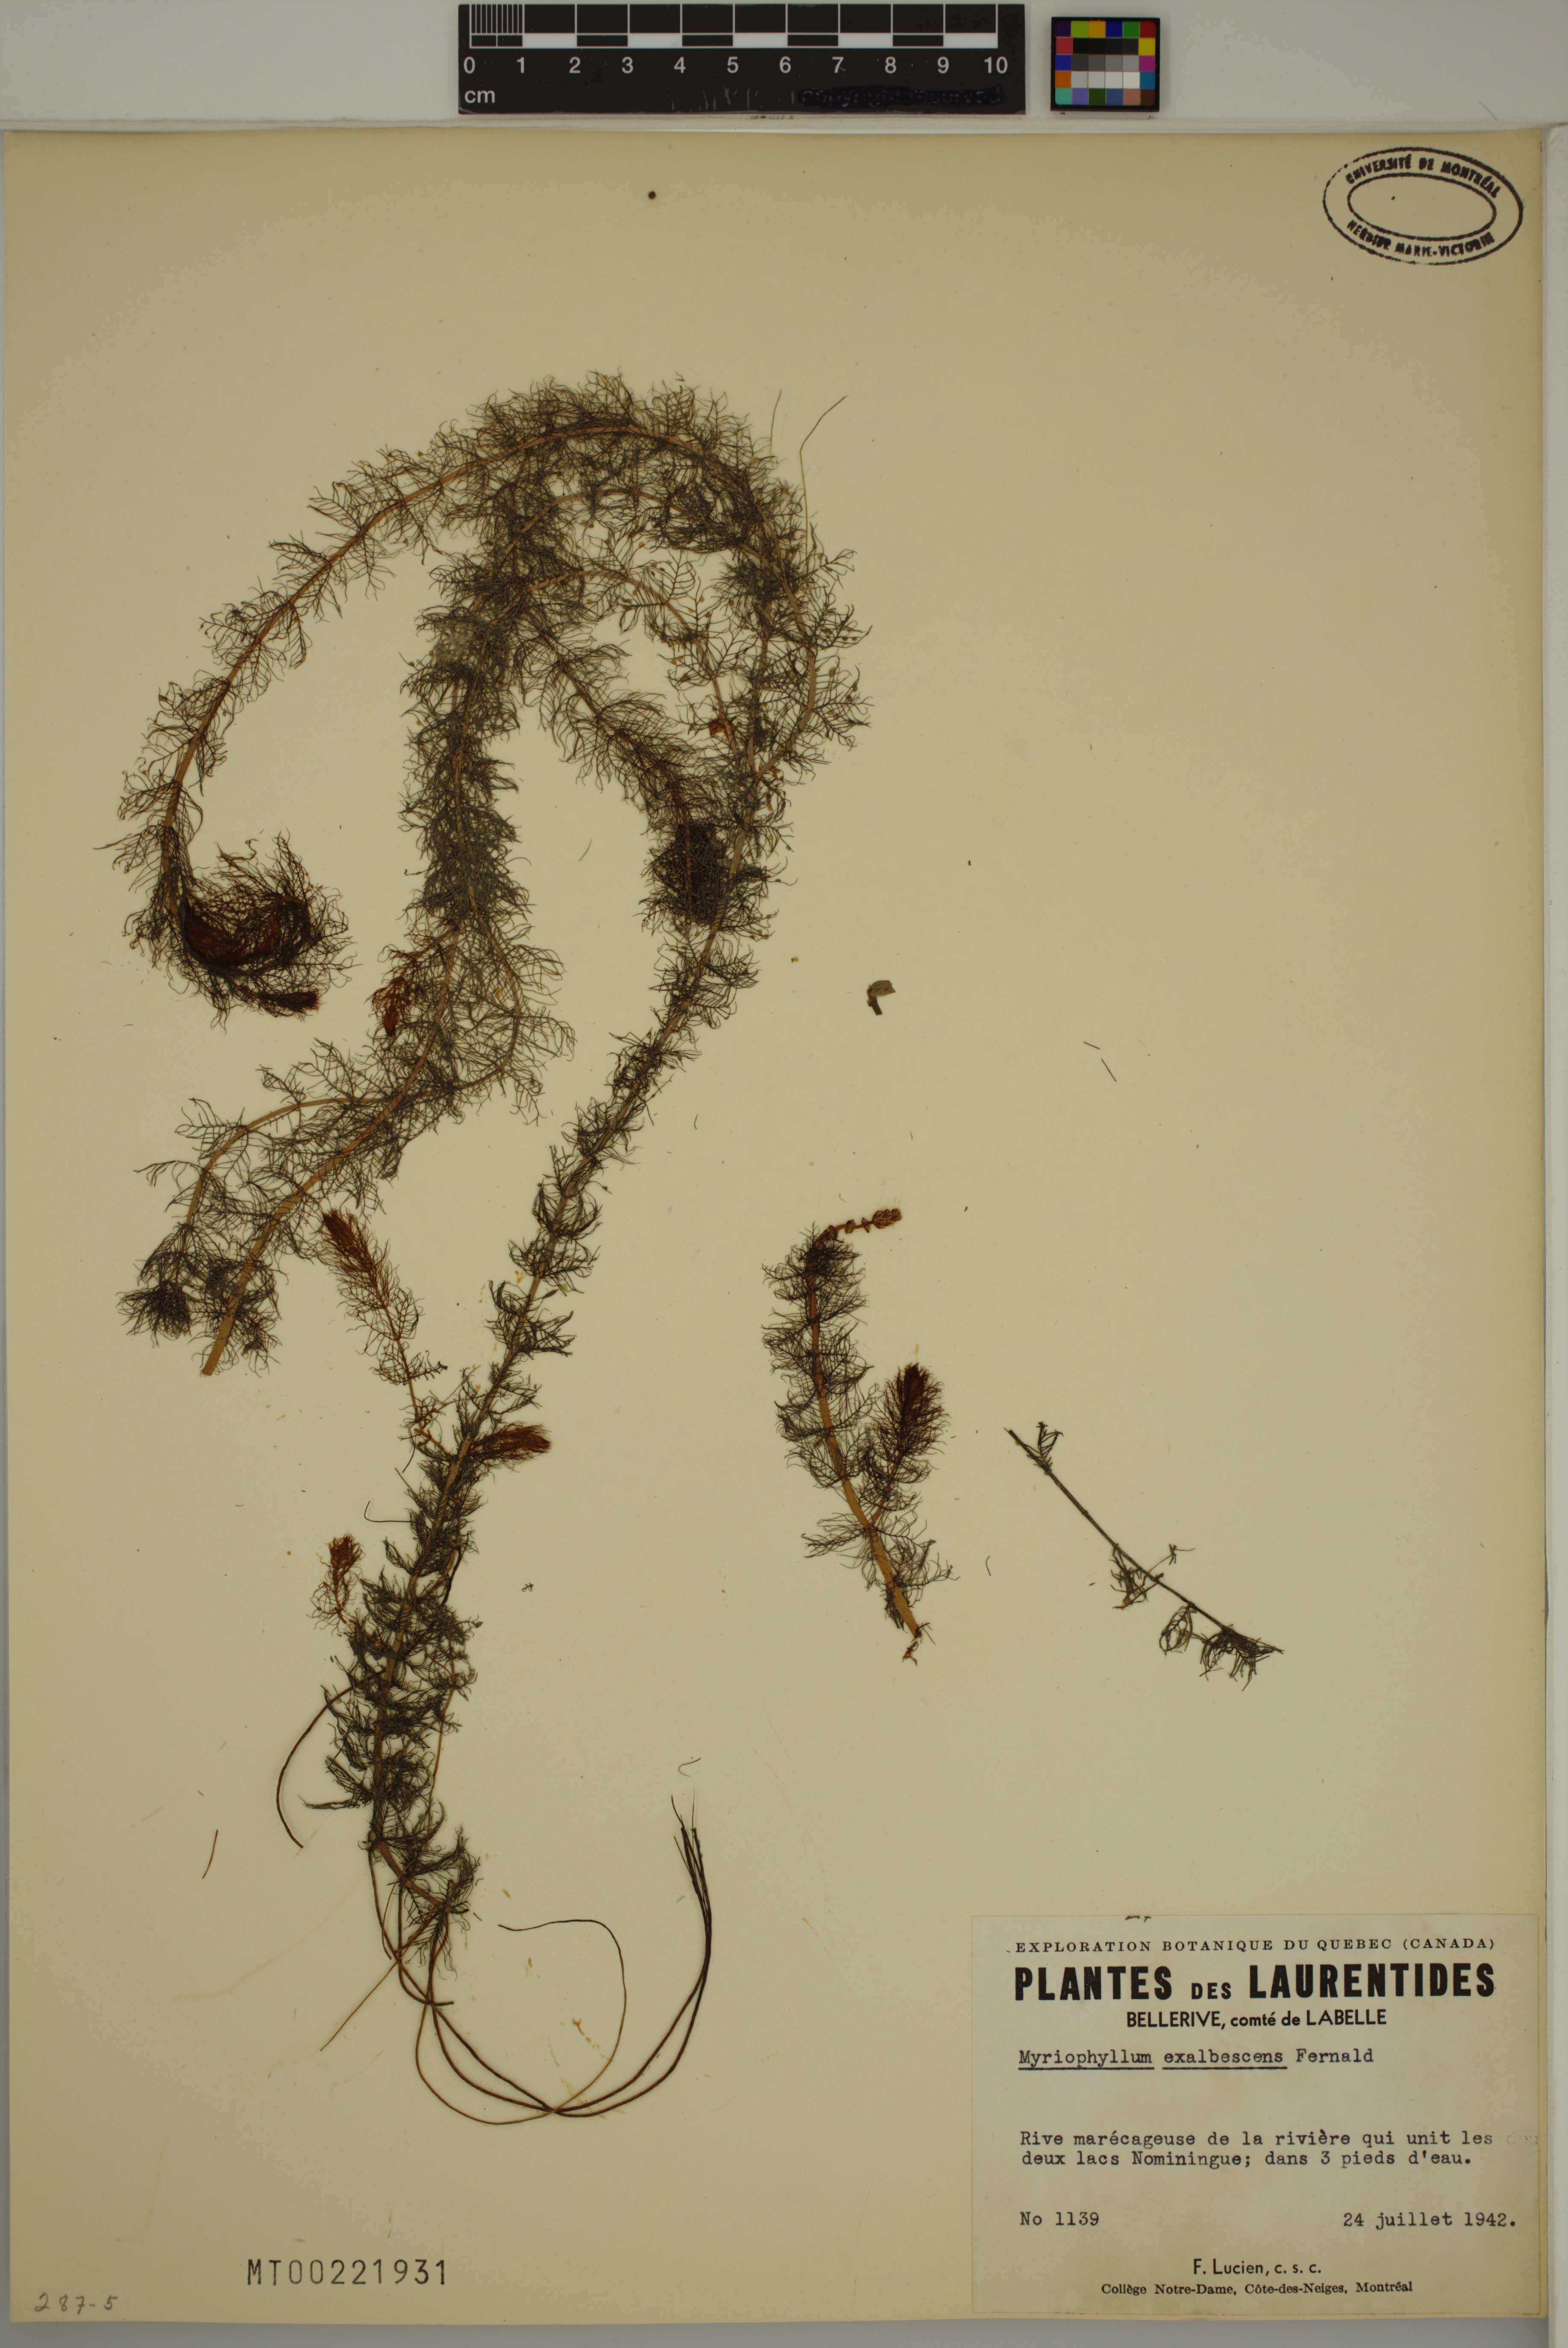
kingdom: Plantae
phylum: Tracheophyta
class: Magnoliopsida
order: Saxifragales
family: Haloragaceae
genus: Myriophyllum
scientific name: Myriophyllum sibiricum
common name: Siberian water-milfoil
